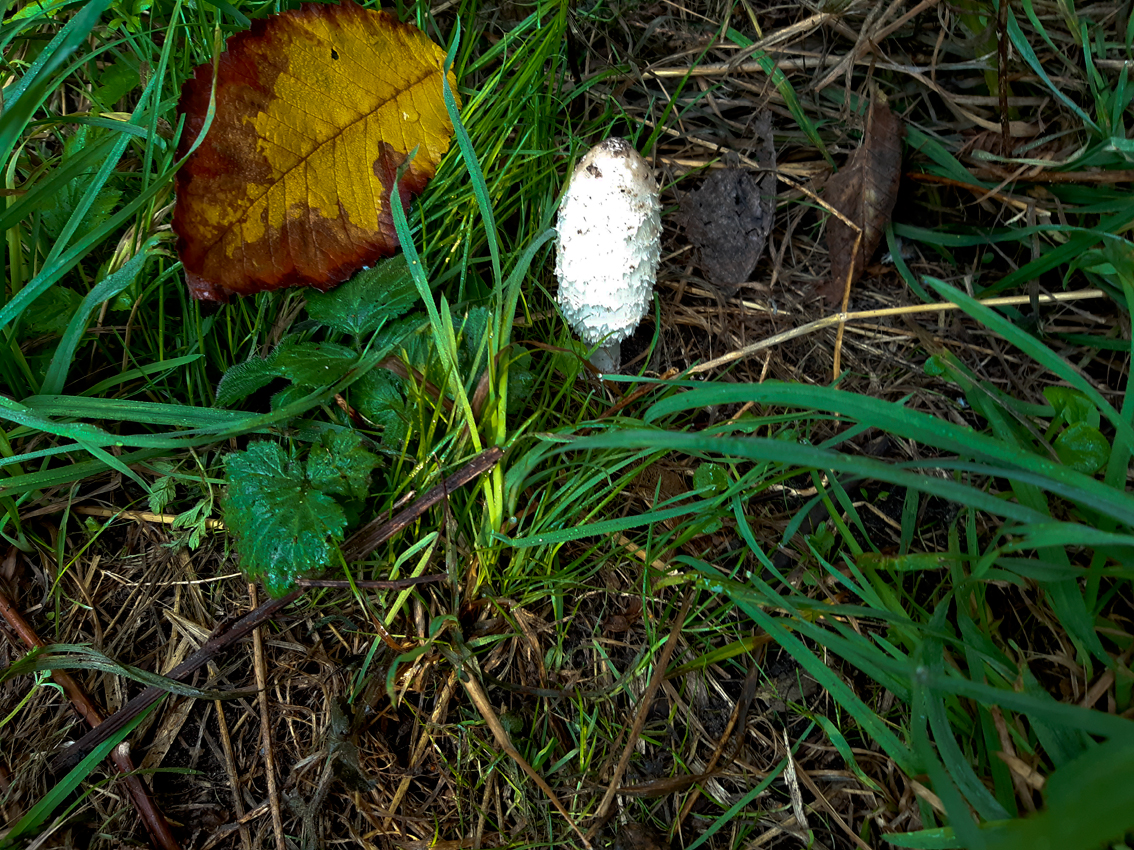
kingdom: Fungi
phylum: Basidiomycota
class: Agaricomycetes
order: Agaricales
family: Agaricaceae
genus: Coprinus
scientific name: Coprinus comatus
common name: stor parykhat
